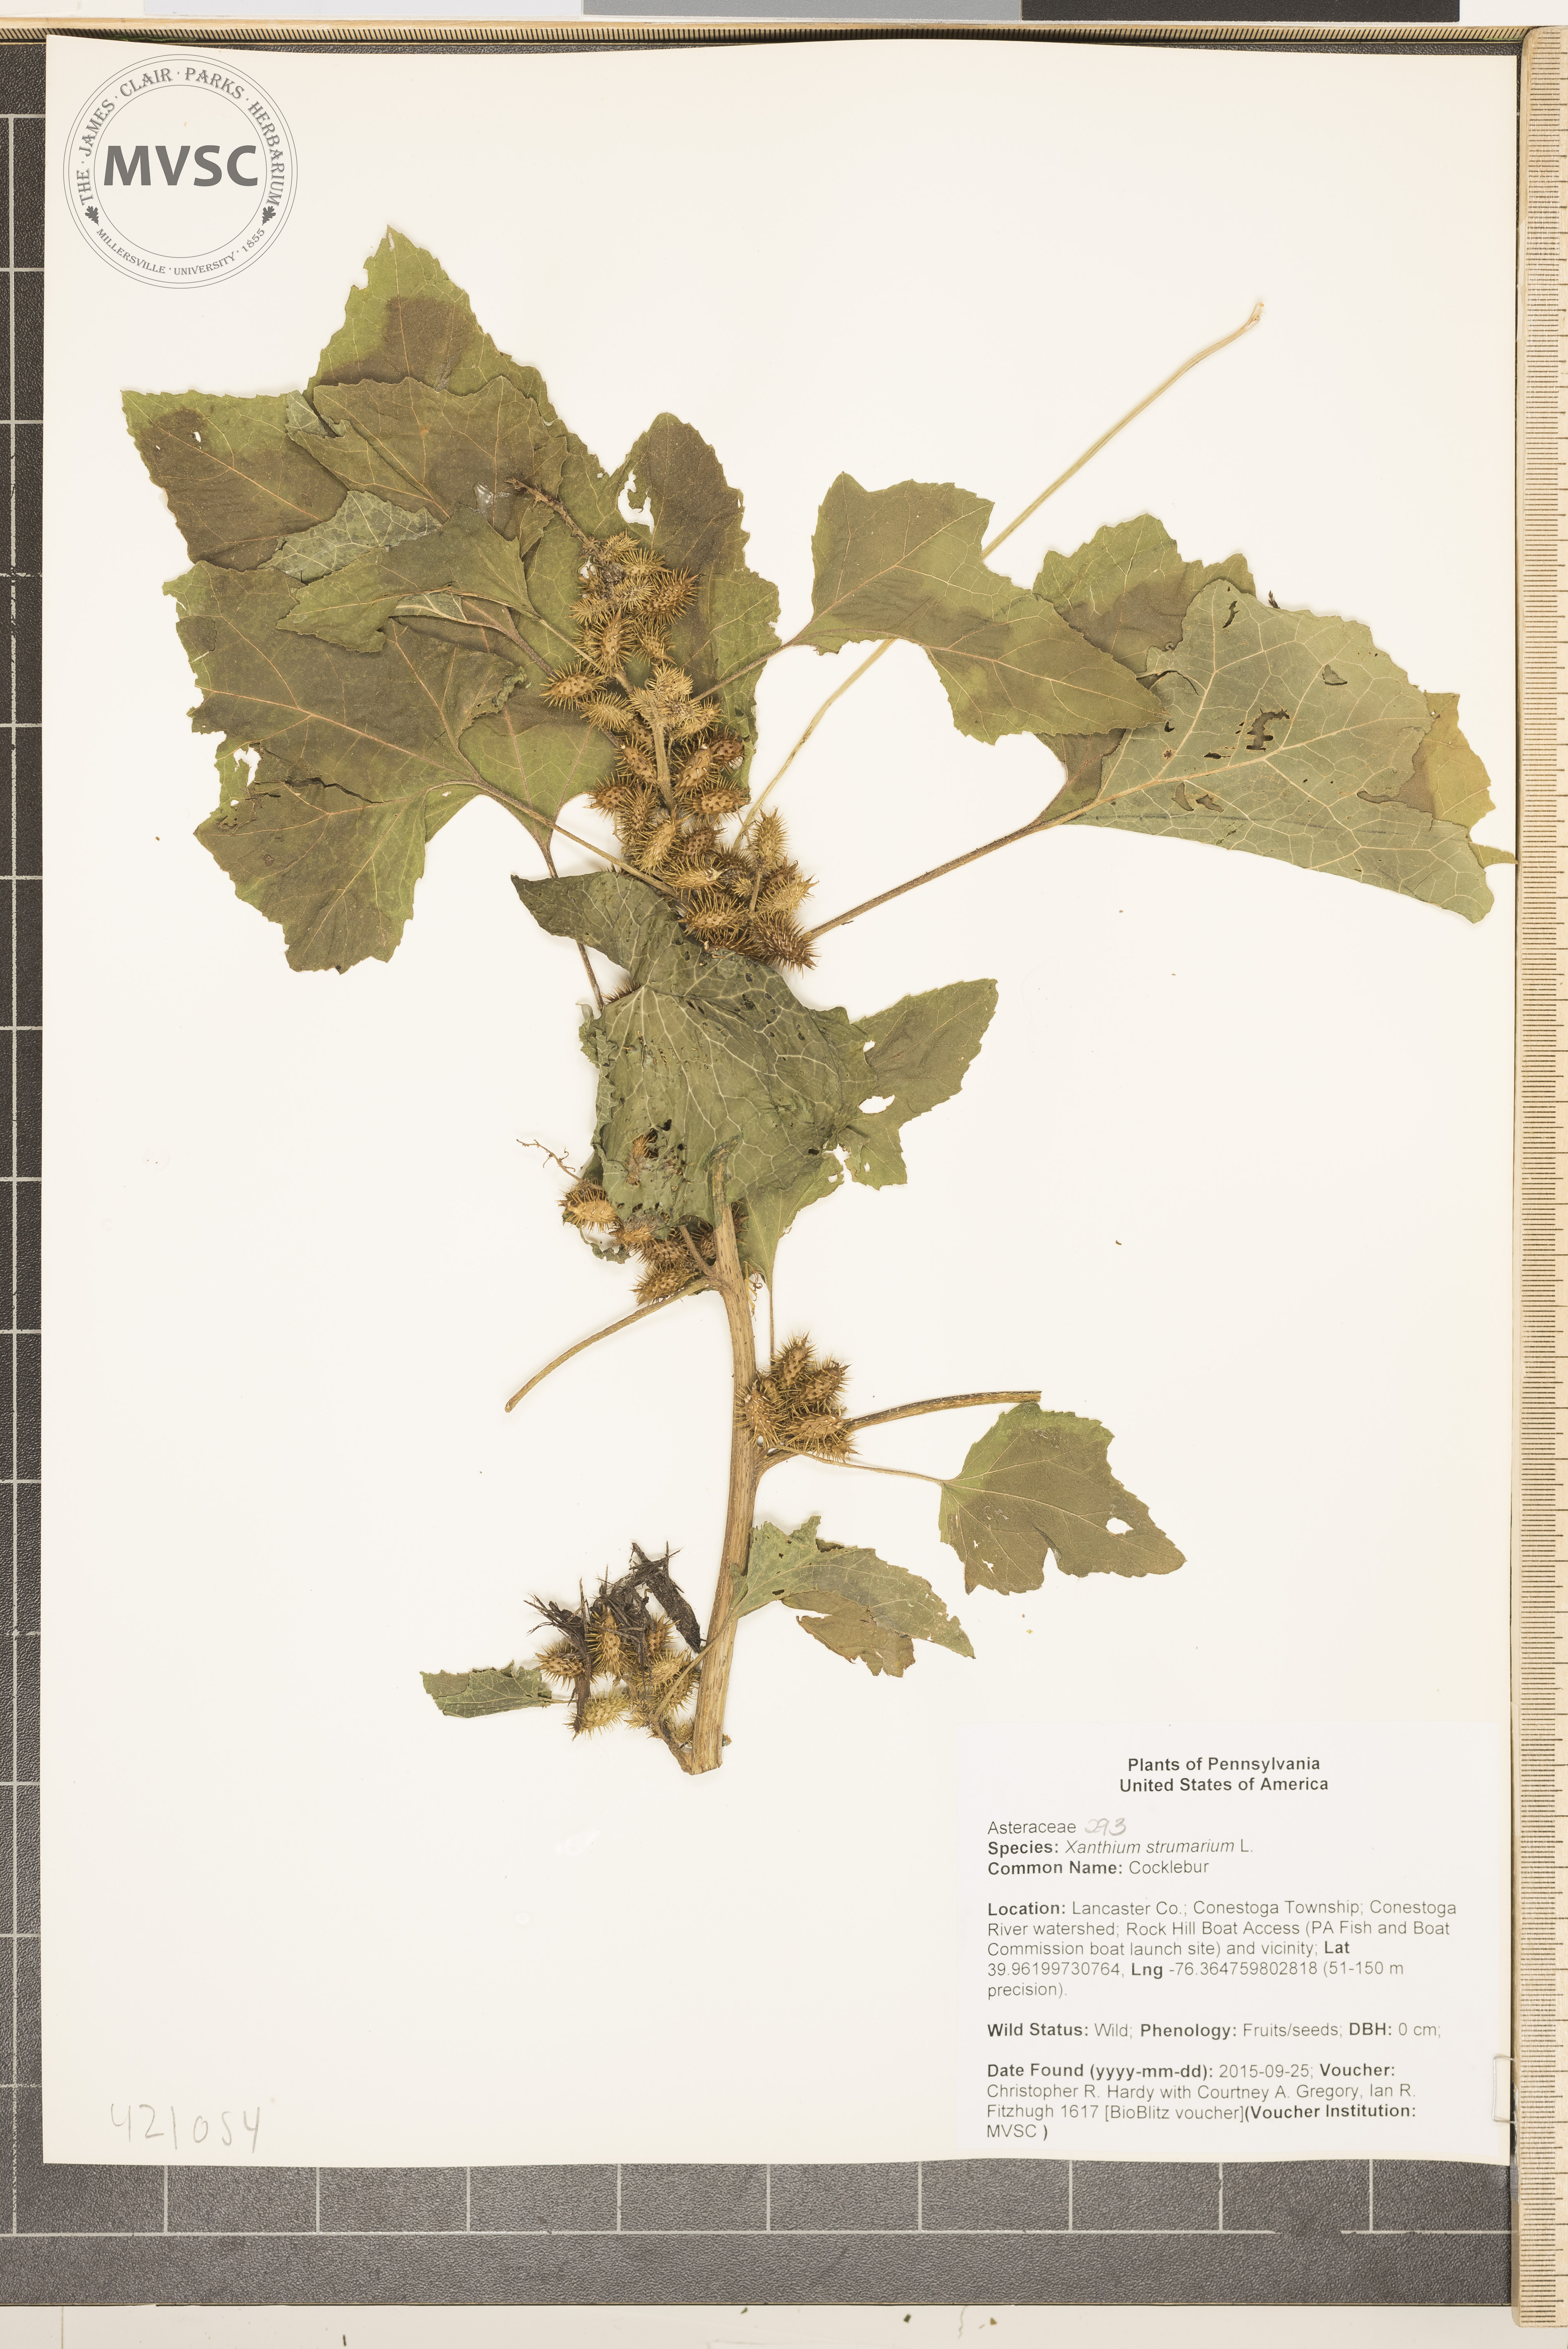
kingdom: Plantae
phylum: Tracheophyta
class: Magnoliopsida
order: Asterales
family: Asteraceae
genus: Xanthium
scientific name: Xanthium strumarium
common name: Cocklebur
